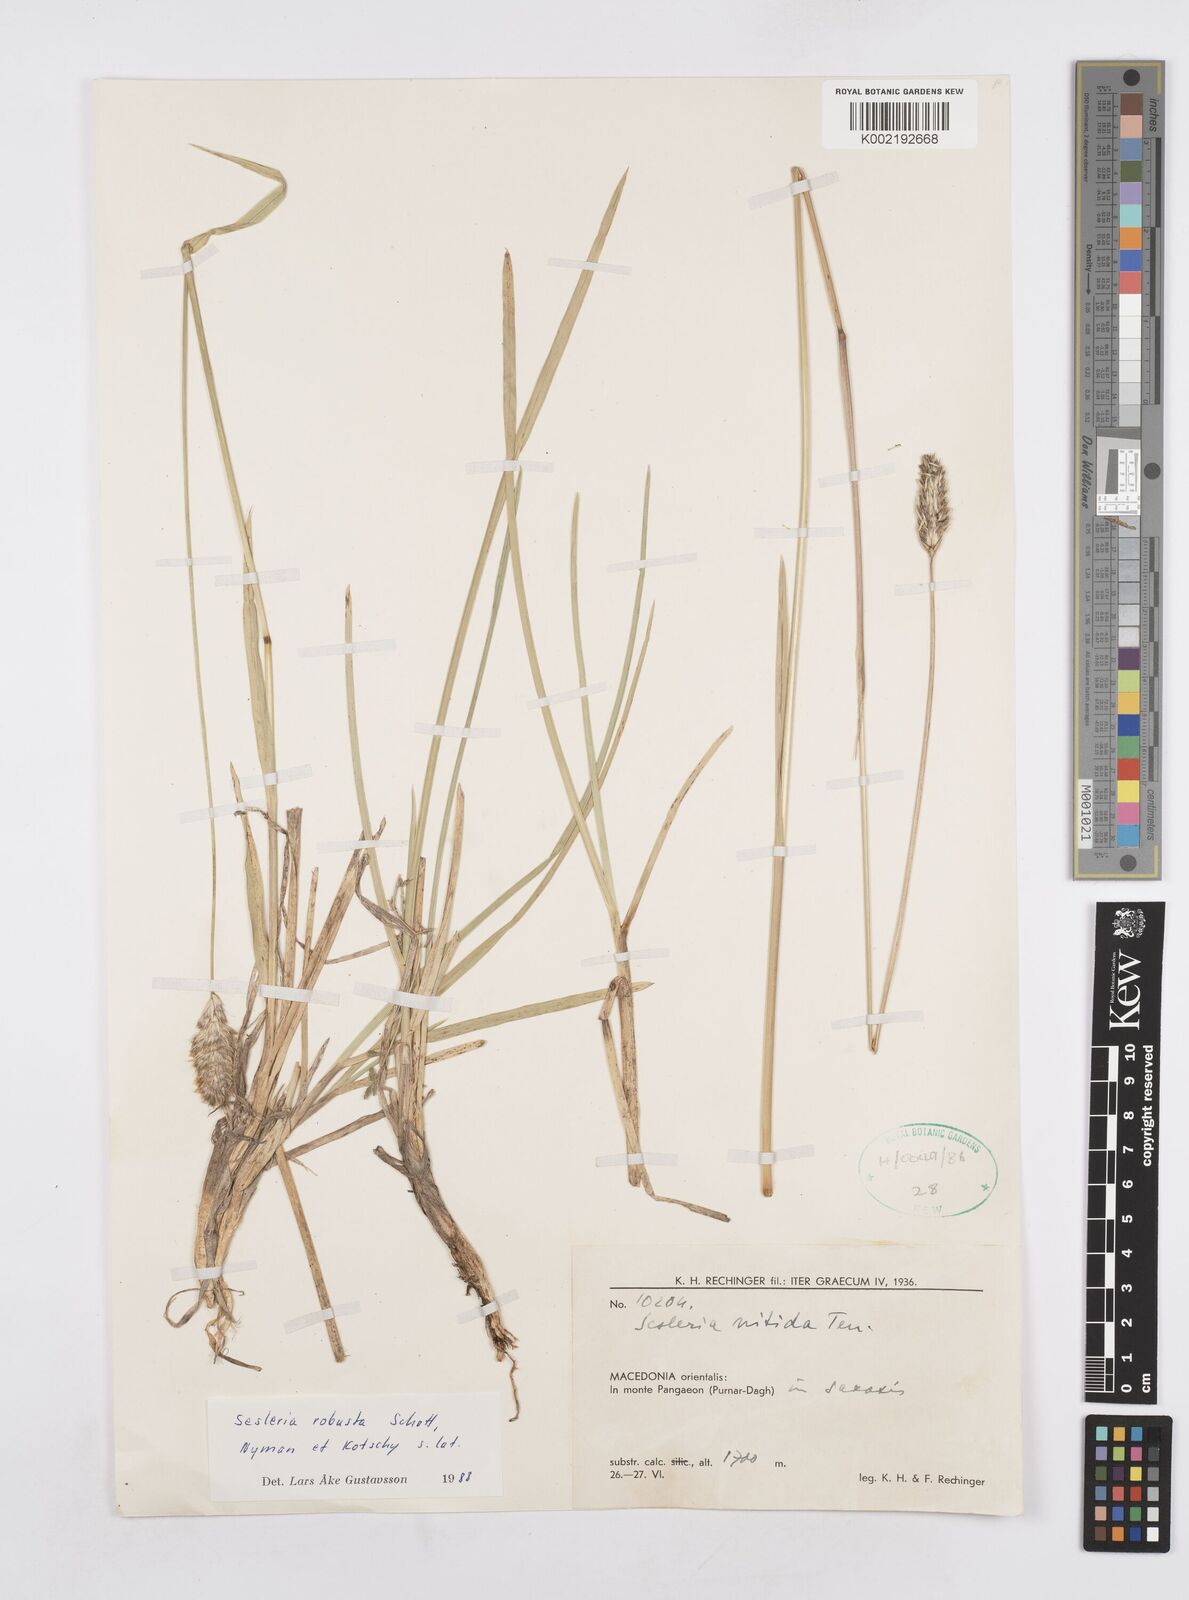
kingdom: Plantae
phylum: Tracheophyta
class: Liliopsida
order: Poales
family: Poaceae
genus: Sesleria
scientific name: Sesleria robusta
